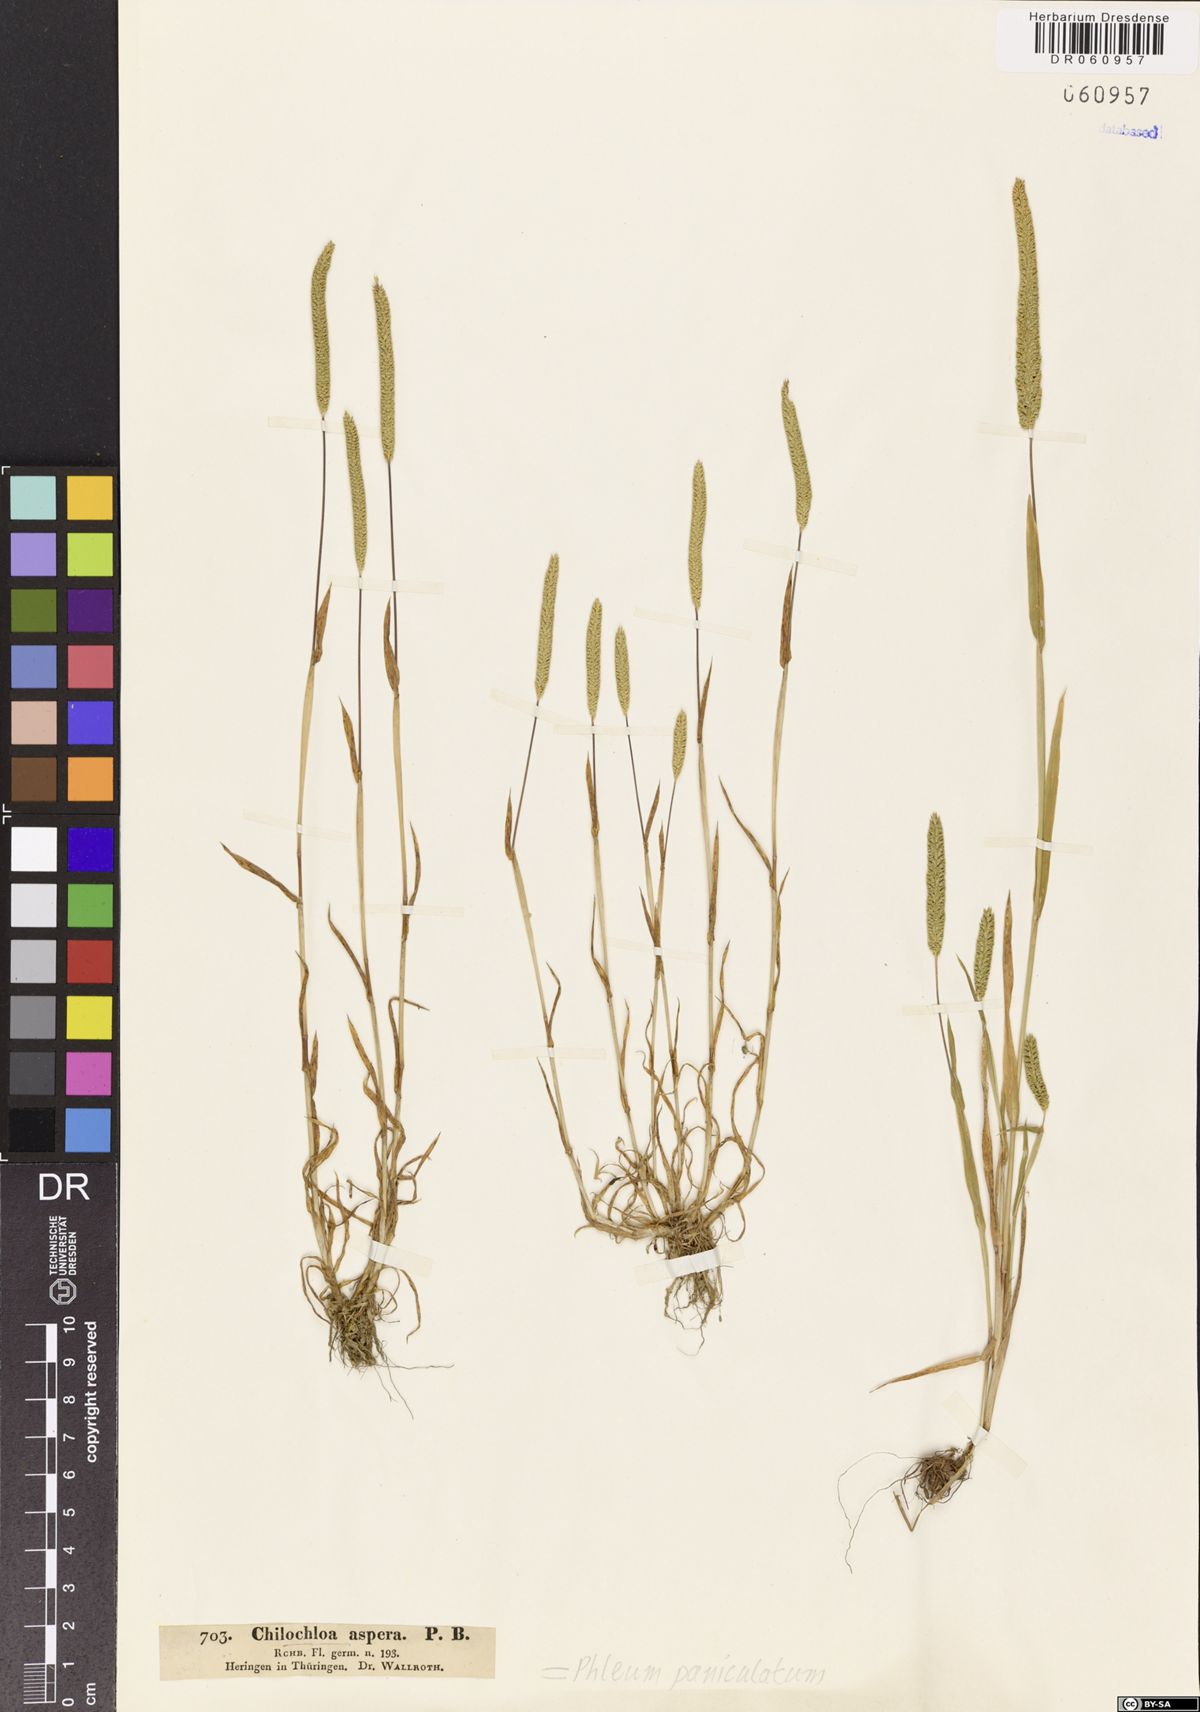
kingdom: Plantae
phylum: Tracheophyta
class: Liliopsida
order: Poales
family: Poaceae
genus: Phleum
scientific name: Phleum paniculatum
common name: British timothy
